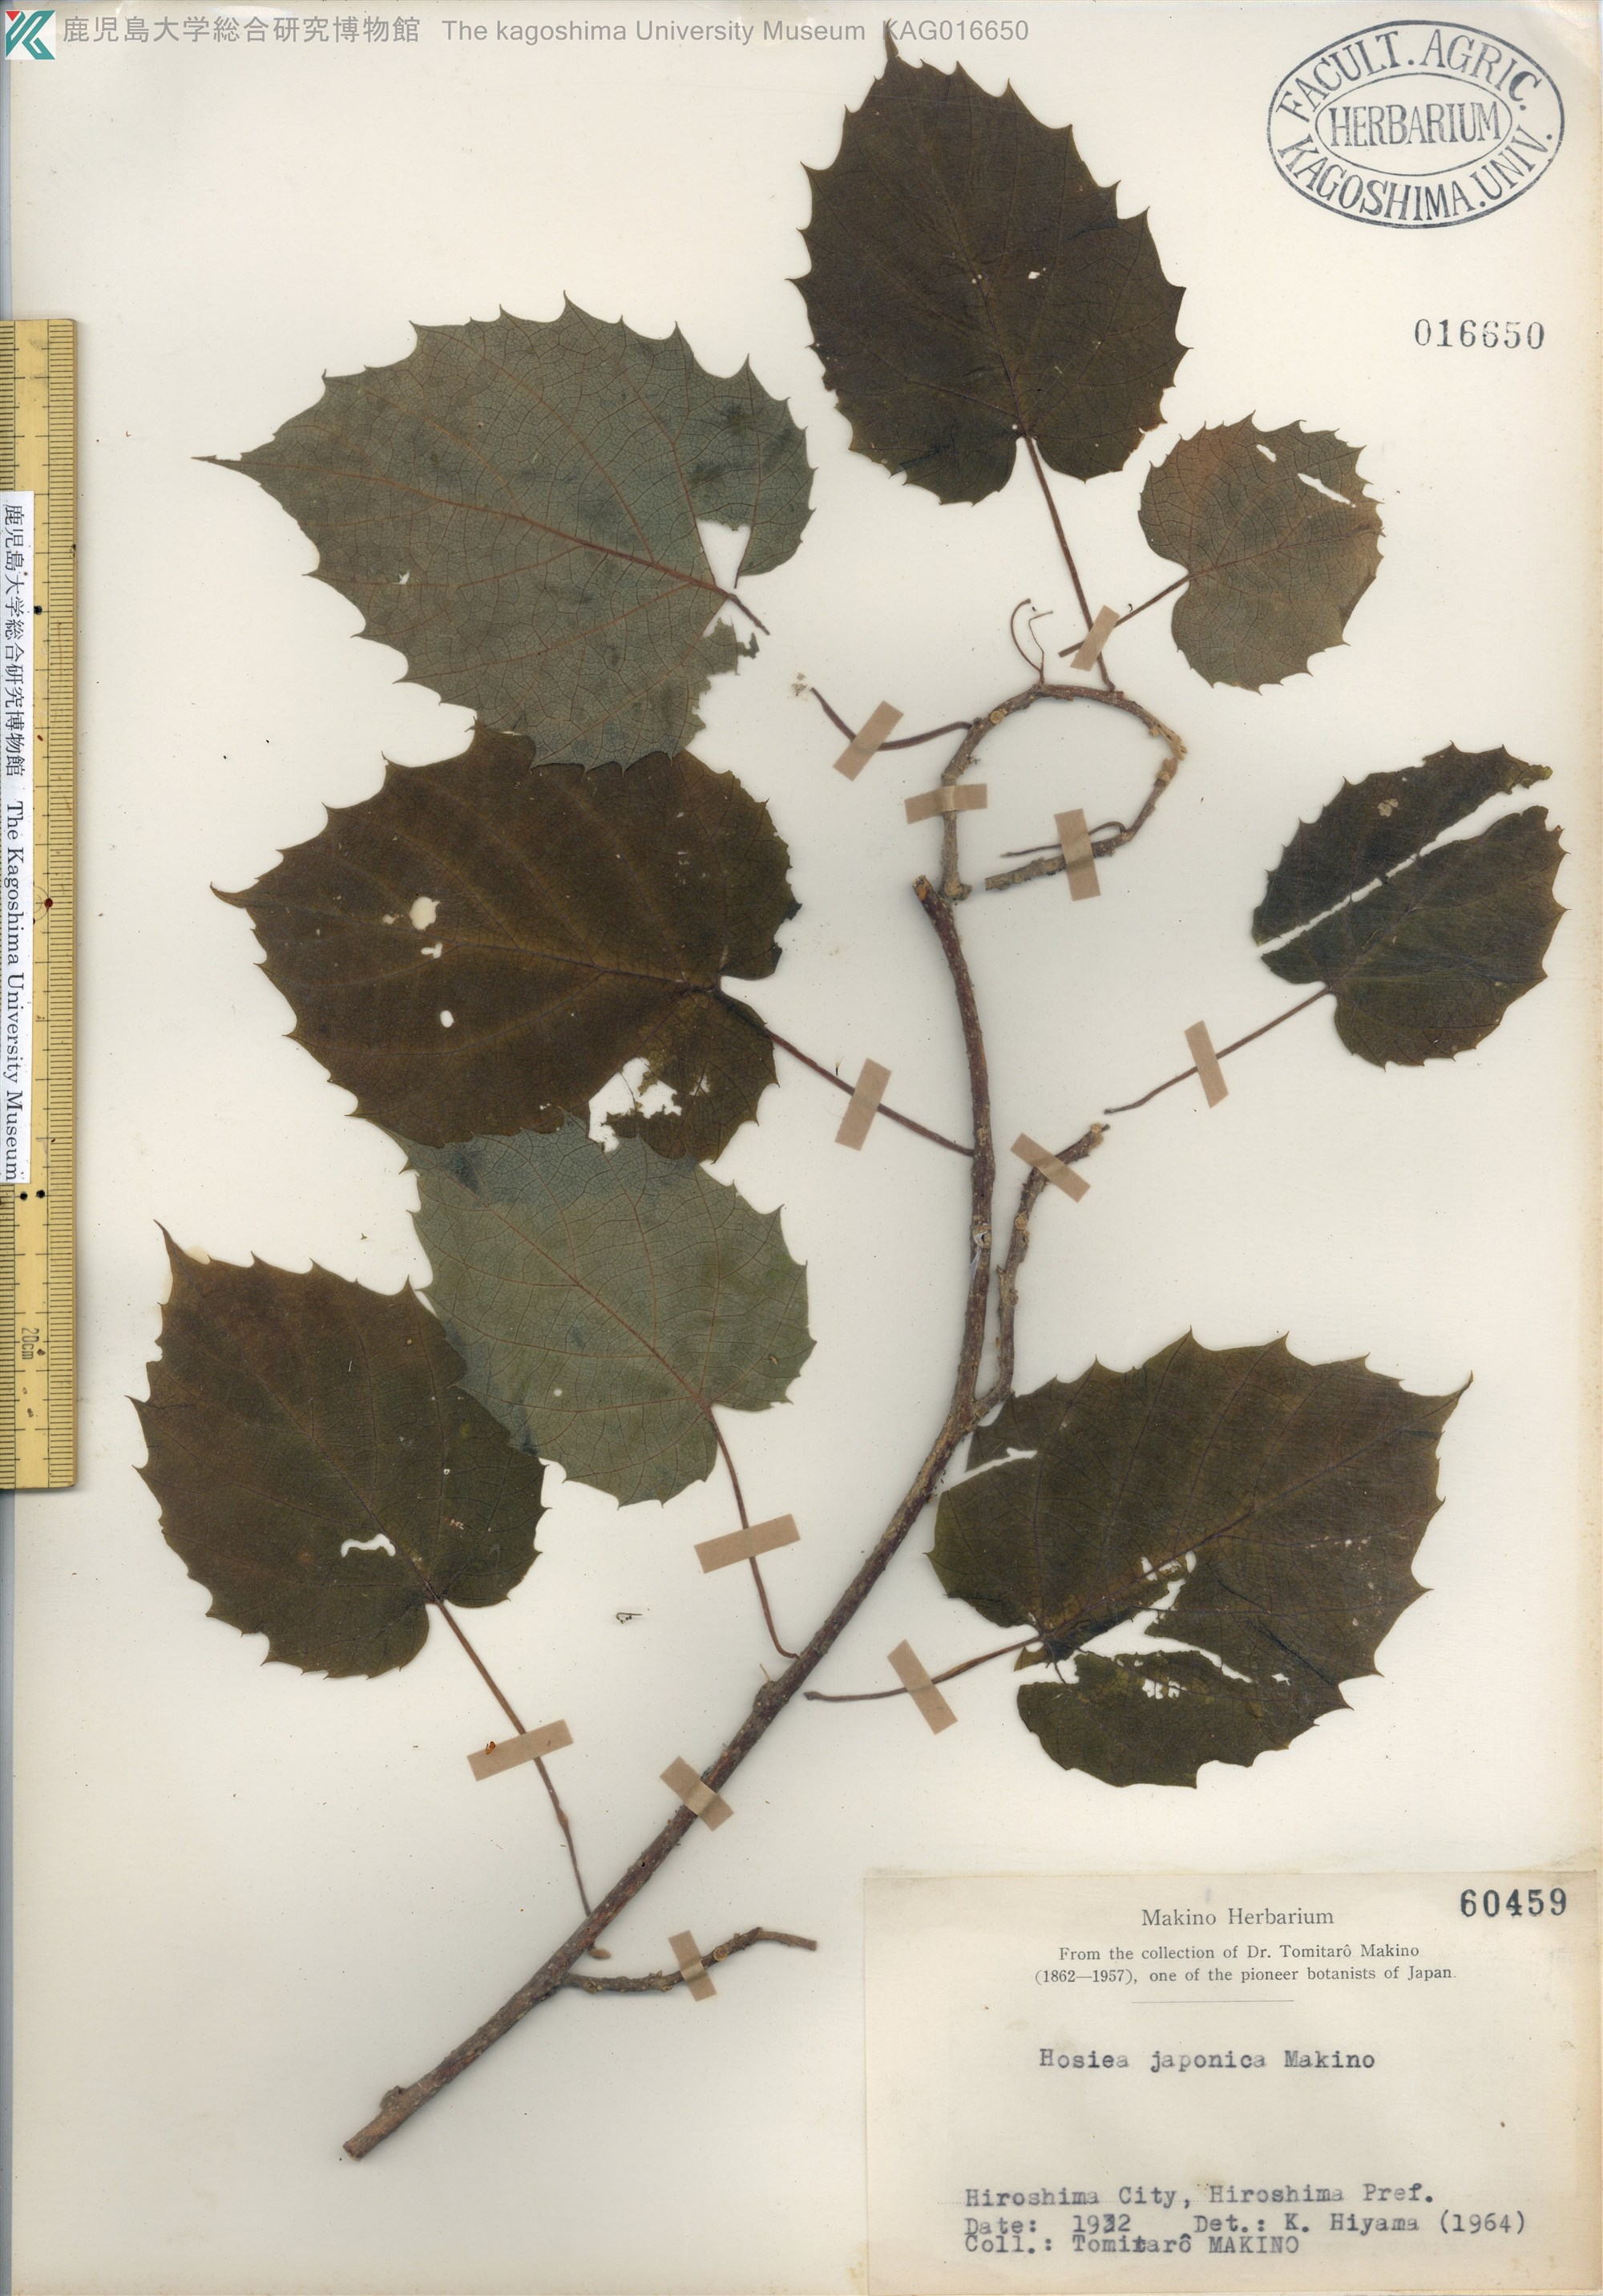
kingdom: Plantae
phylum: Tracheophyta
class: Magnoliopsida
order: Icacinales
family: Icacinaceae
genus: Hosiea
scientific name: Hosiea japonica
